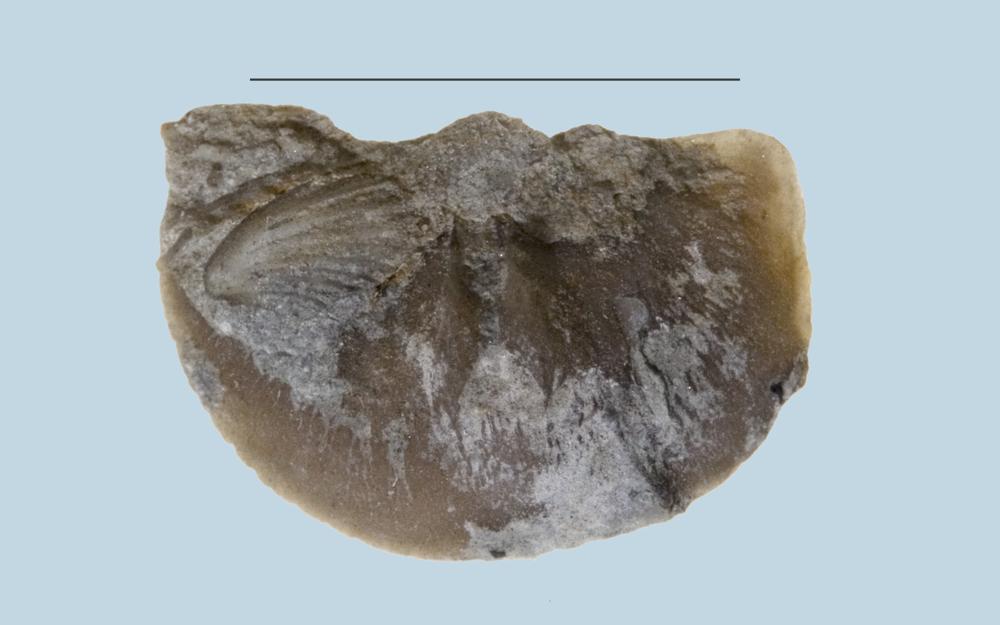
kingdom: Animalia
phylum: Brachiopoda
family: Sowerbyellidae
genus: Sowerbyella
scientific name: Sowerbyella
